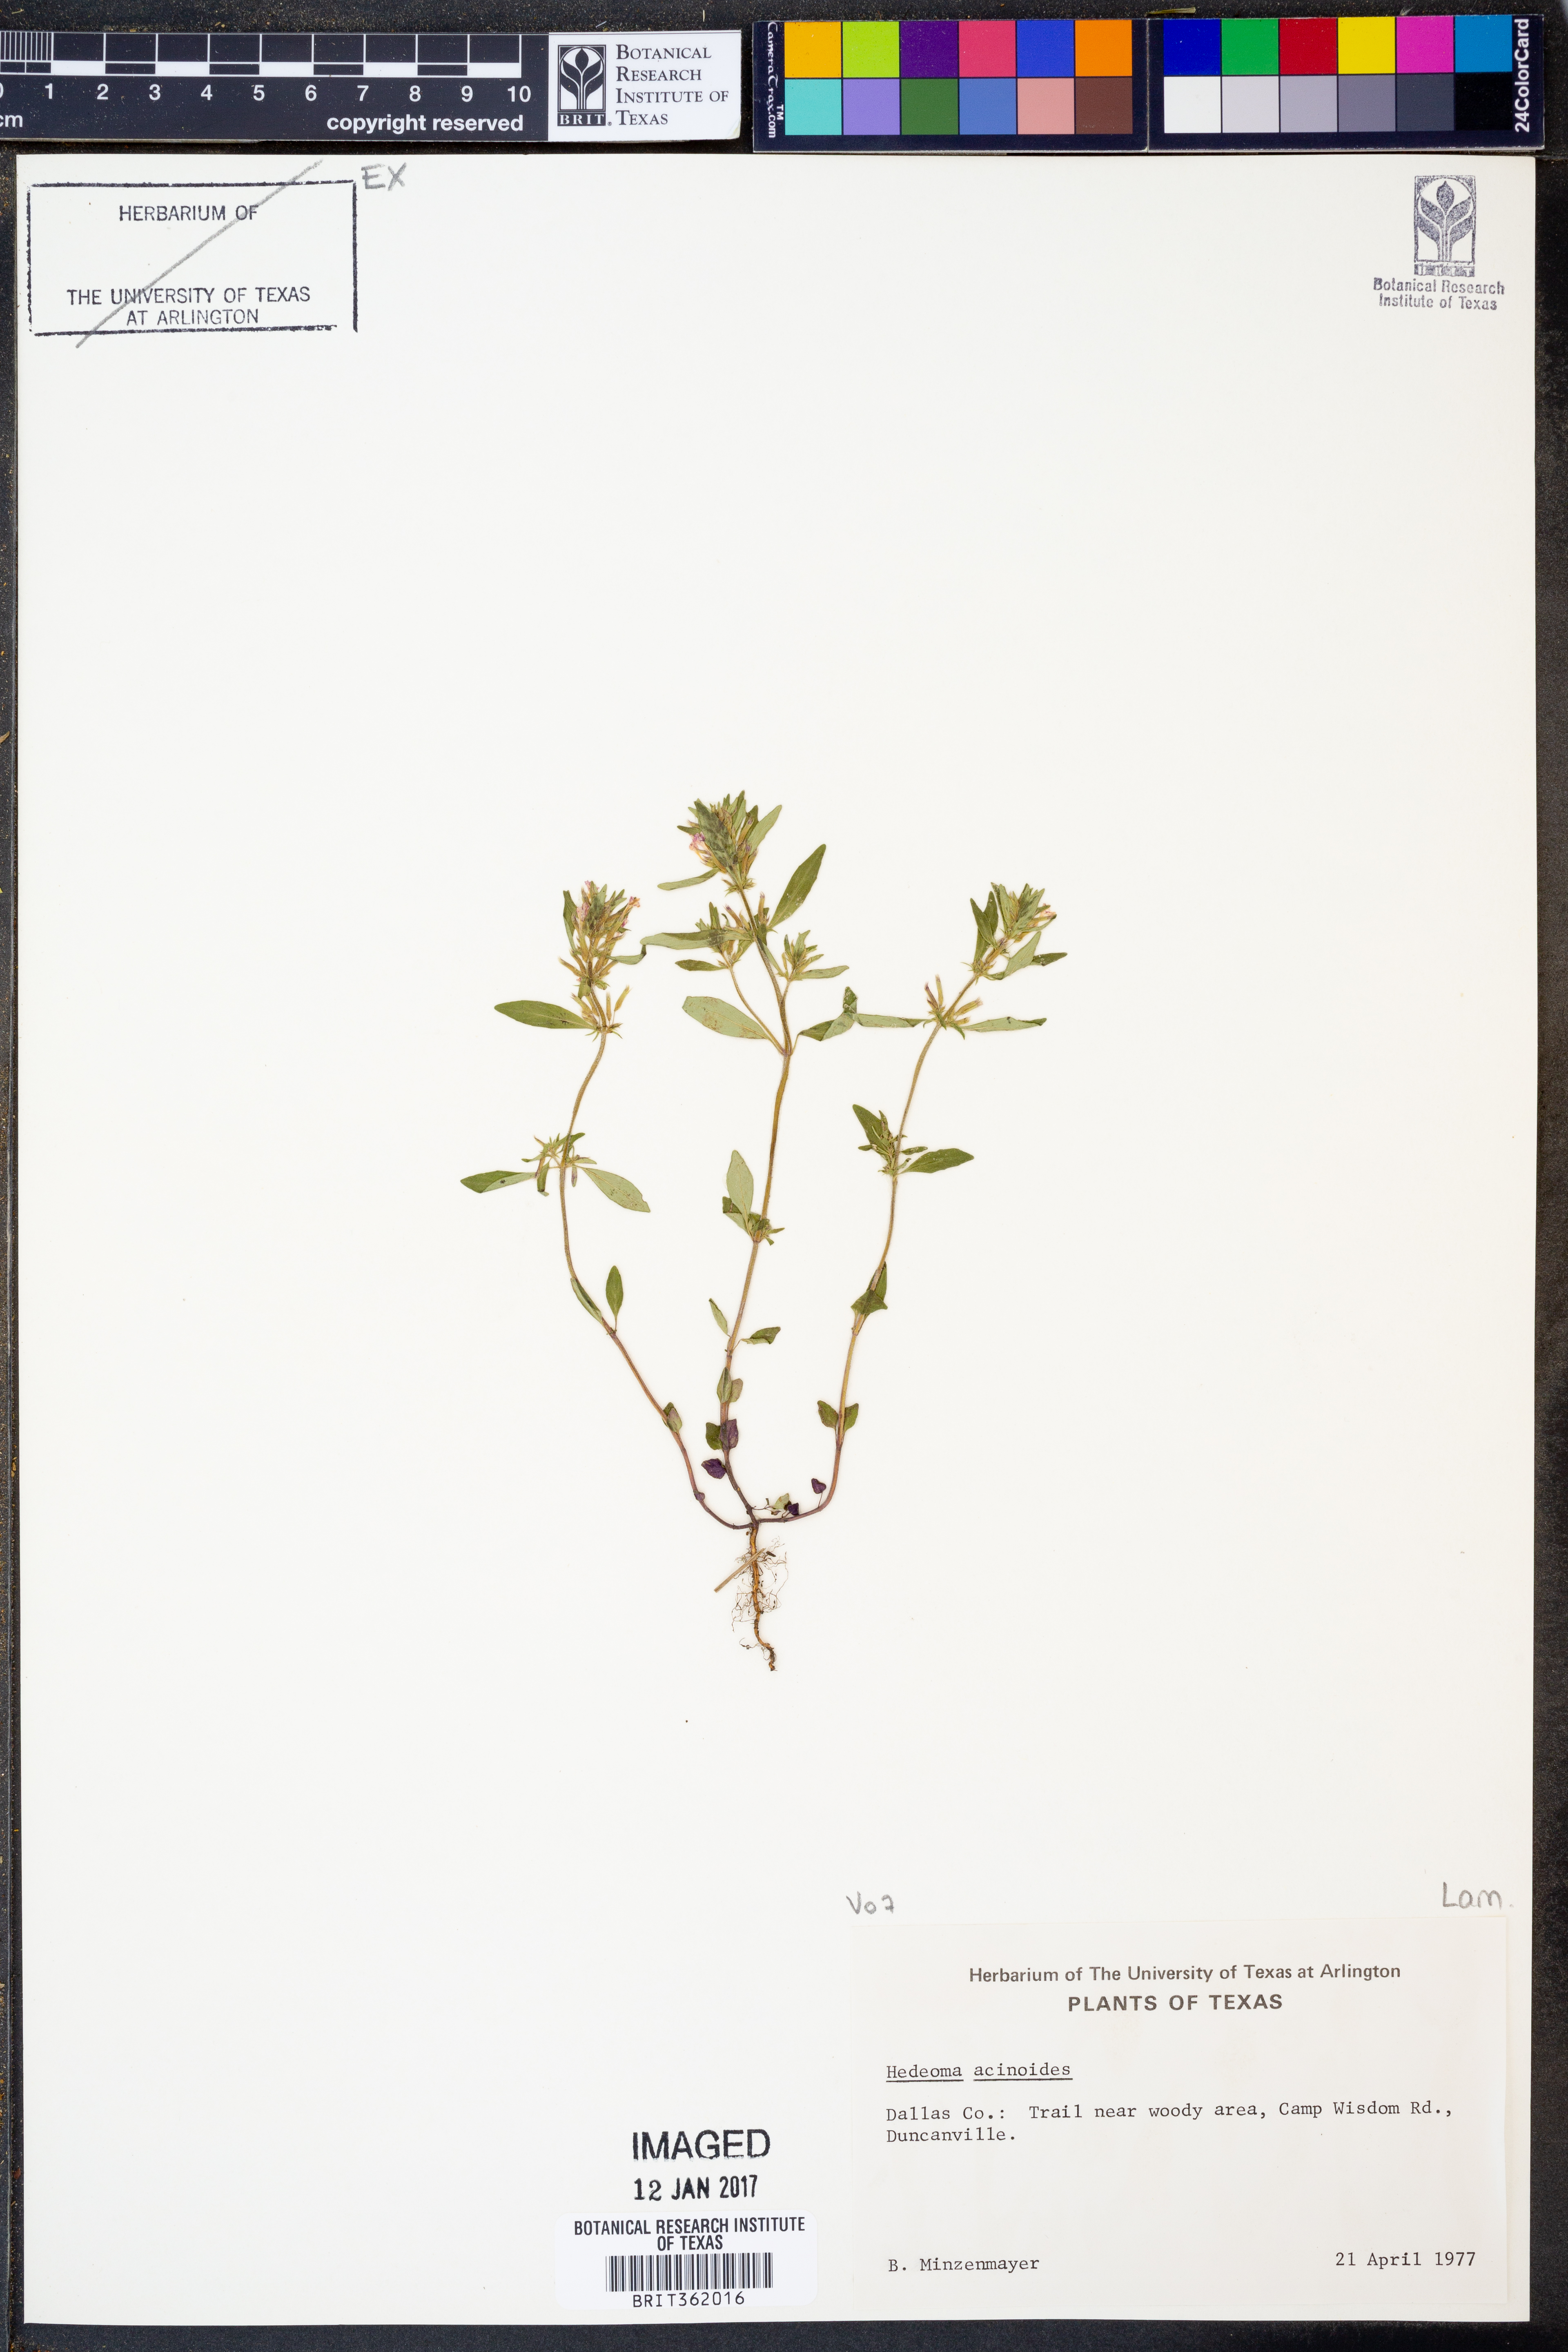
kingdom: Plantae
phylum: Tracheophyta
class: Magnoliopsida
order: Lamiales
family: Lamiaceae
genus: Hedeoma
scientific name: Hedeoma acinoides
